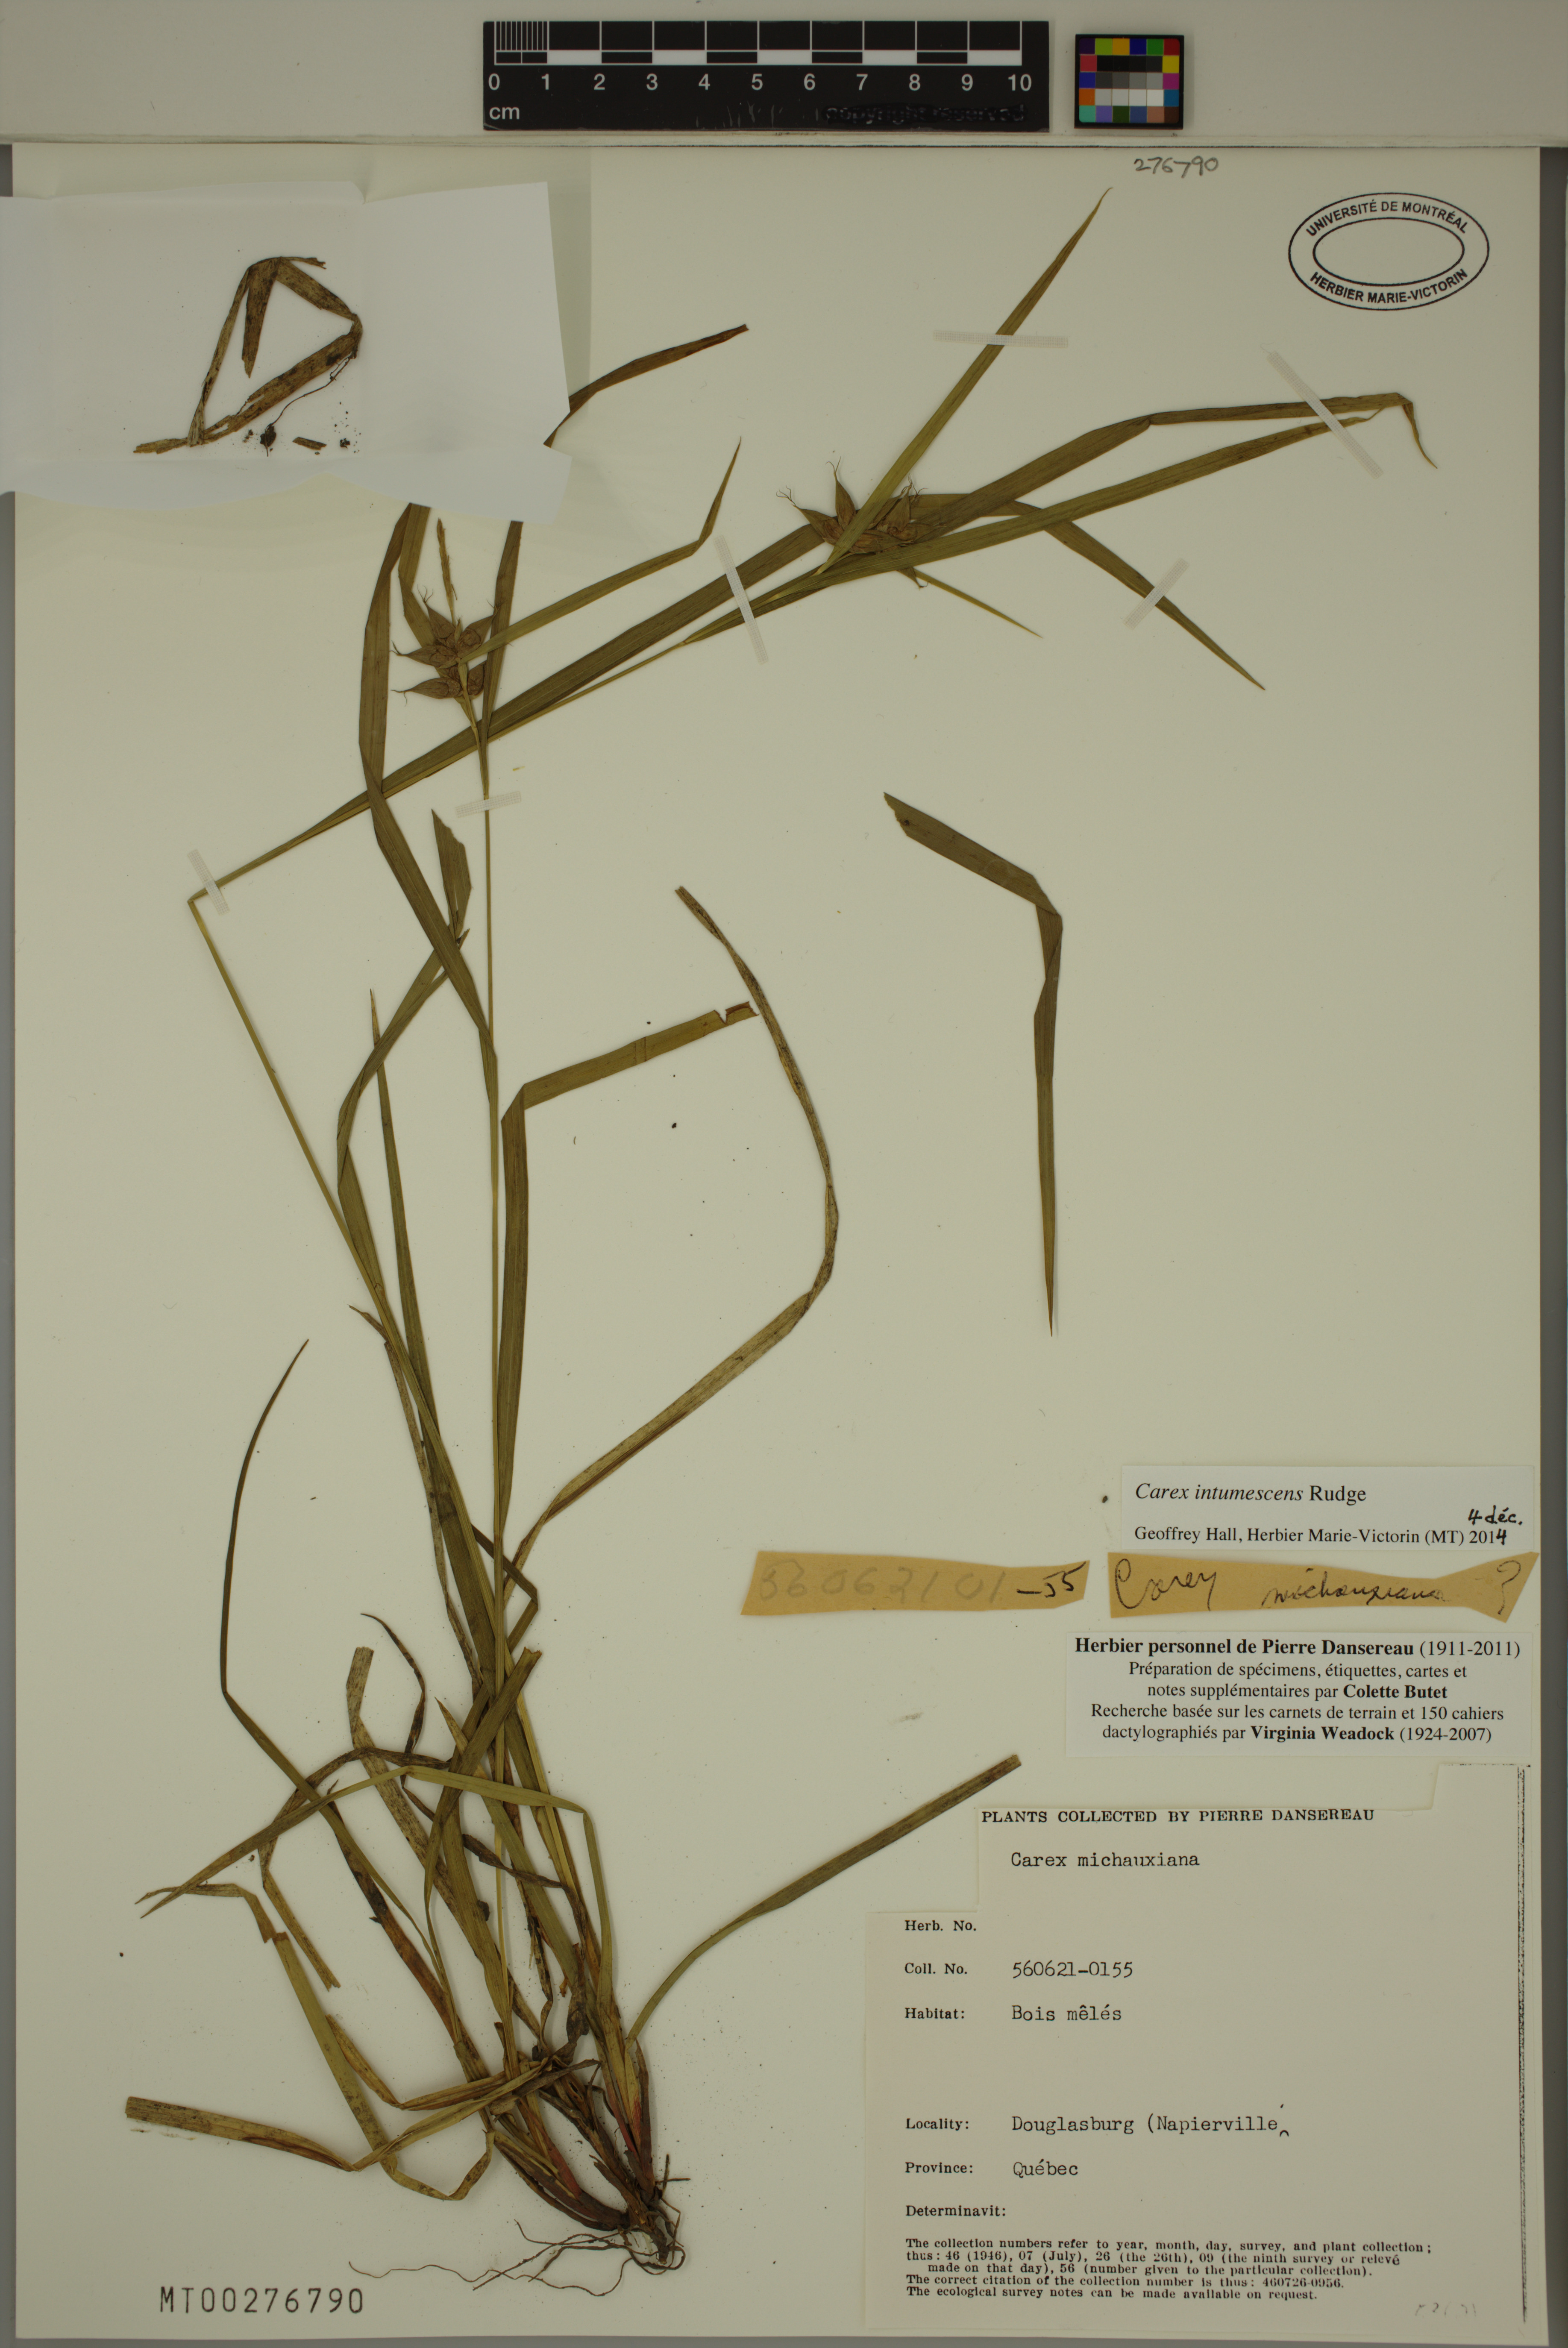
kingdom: Plantae
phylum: Tracheophyta
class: Liliopsida
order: Poales
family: Cyperaceae
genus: Carex
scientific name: Carex intumescens
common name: Greater bladder sedge
